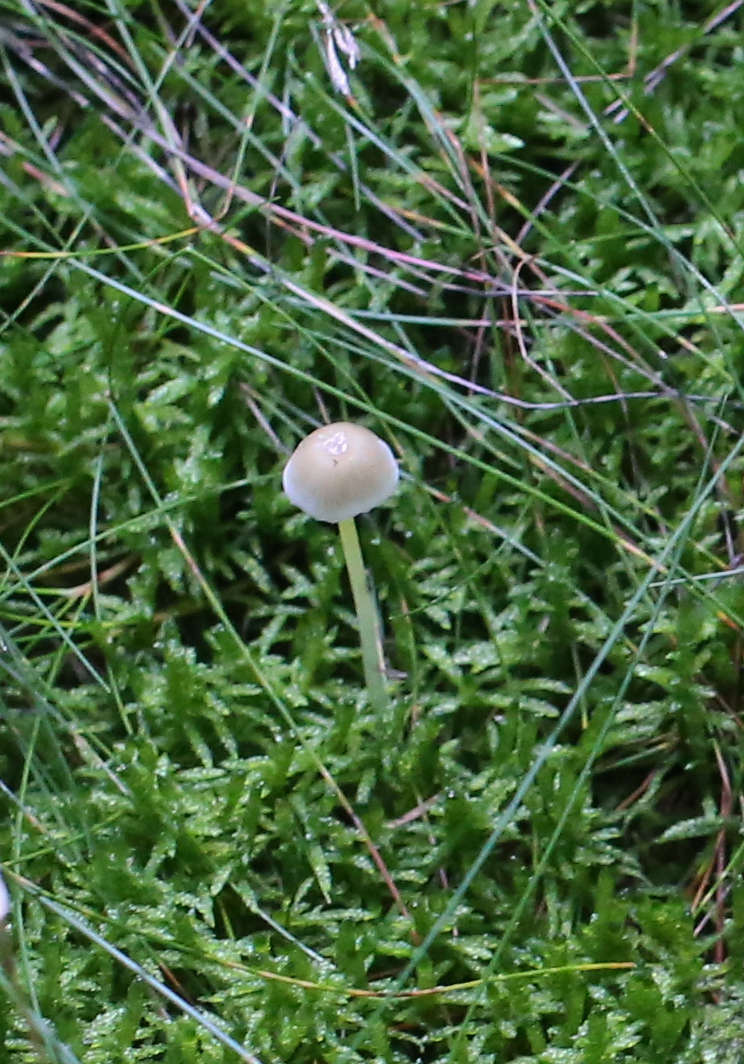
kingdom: Fungi
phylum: Basidiomycota
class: Agaricomycetes
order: Agaricales
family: Mycenaceae
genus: Mycena
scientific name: Mycena epipterygia
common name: gulstokket huesvamp
